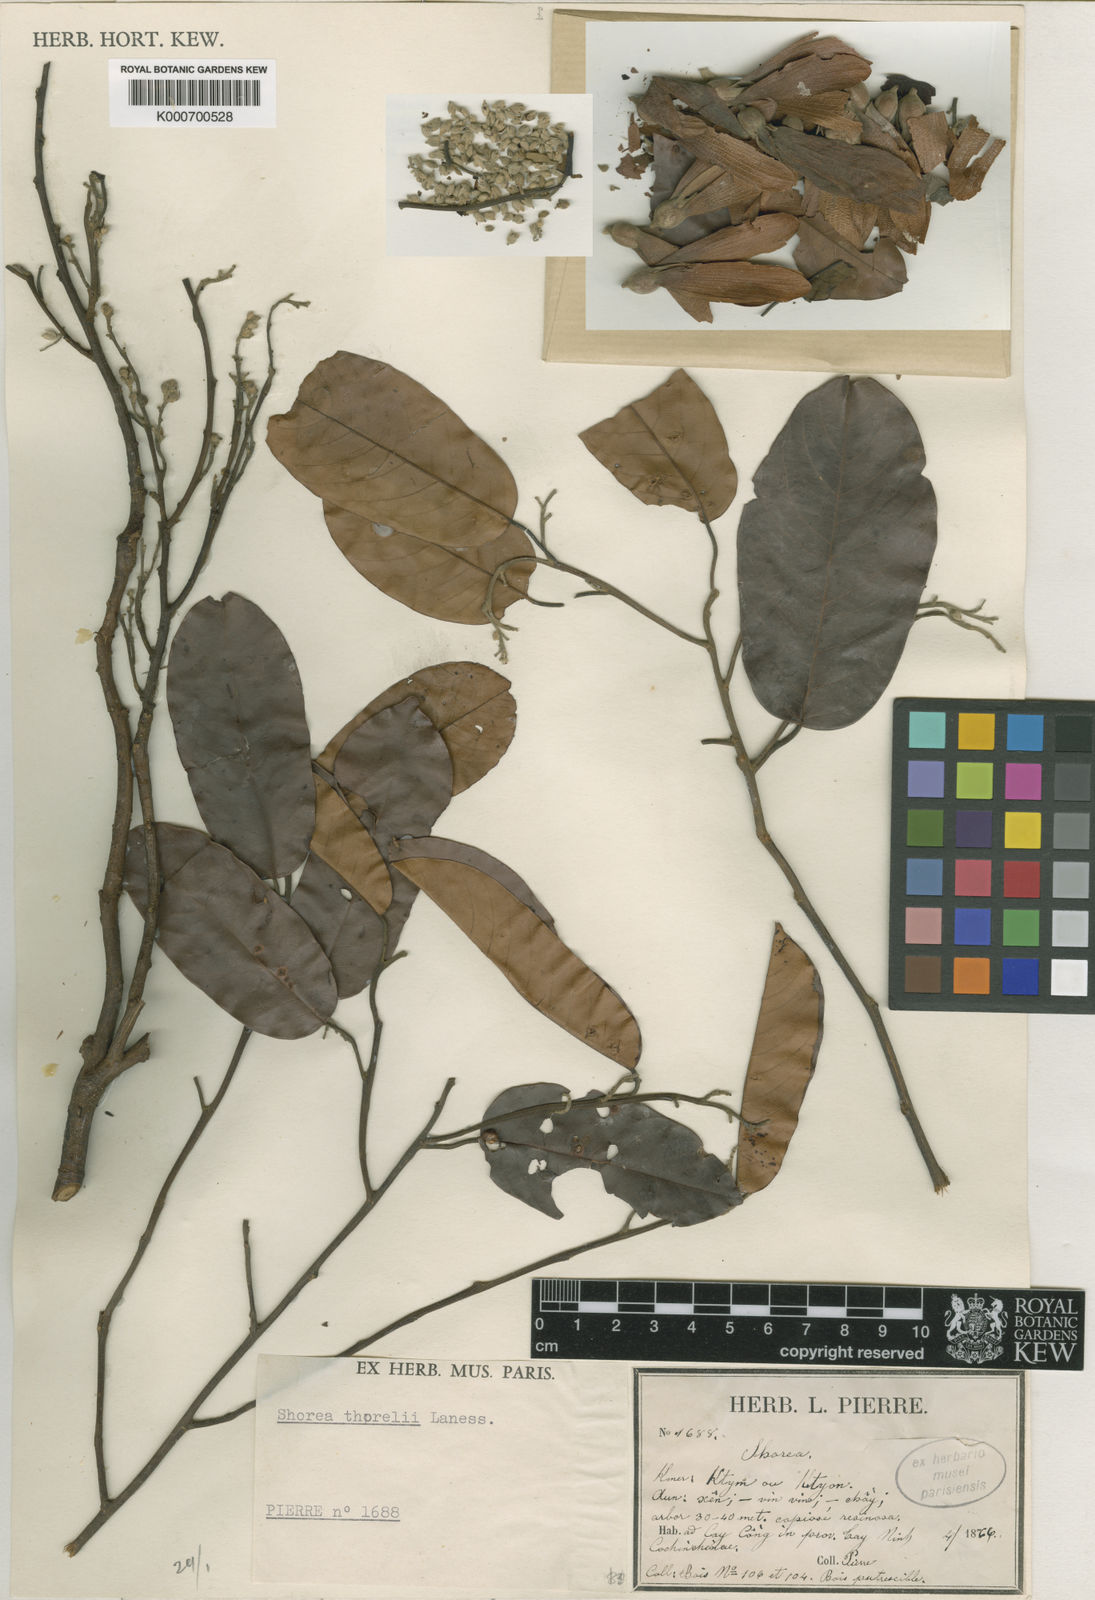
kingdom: Plantae
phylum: Tracheophyta
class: Magnoliopsida
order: Malvales
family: Dipterocarpaceae
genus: Shorea
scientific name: Shorea thorelii
